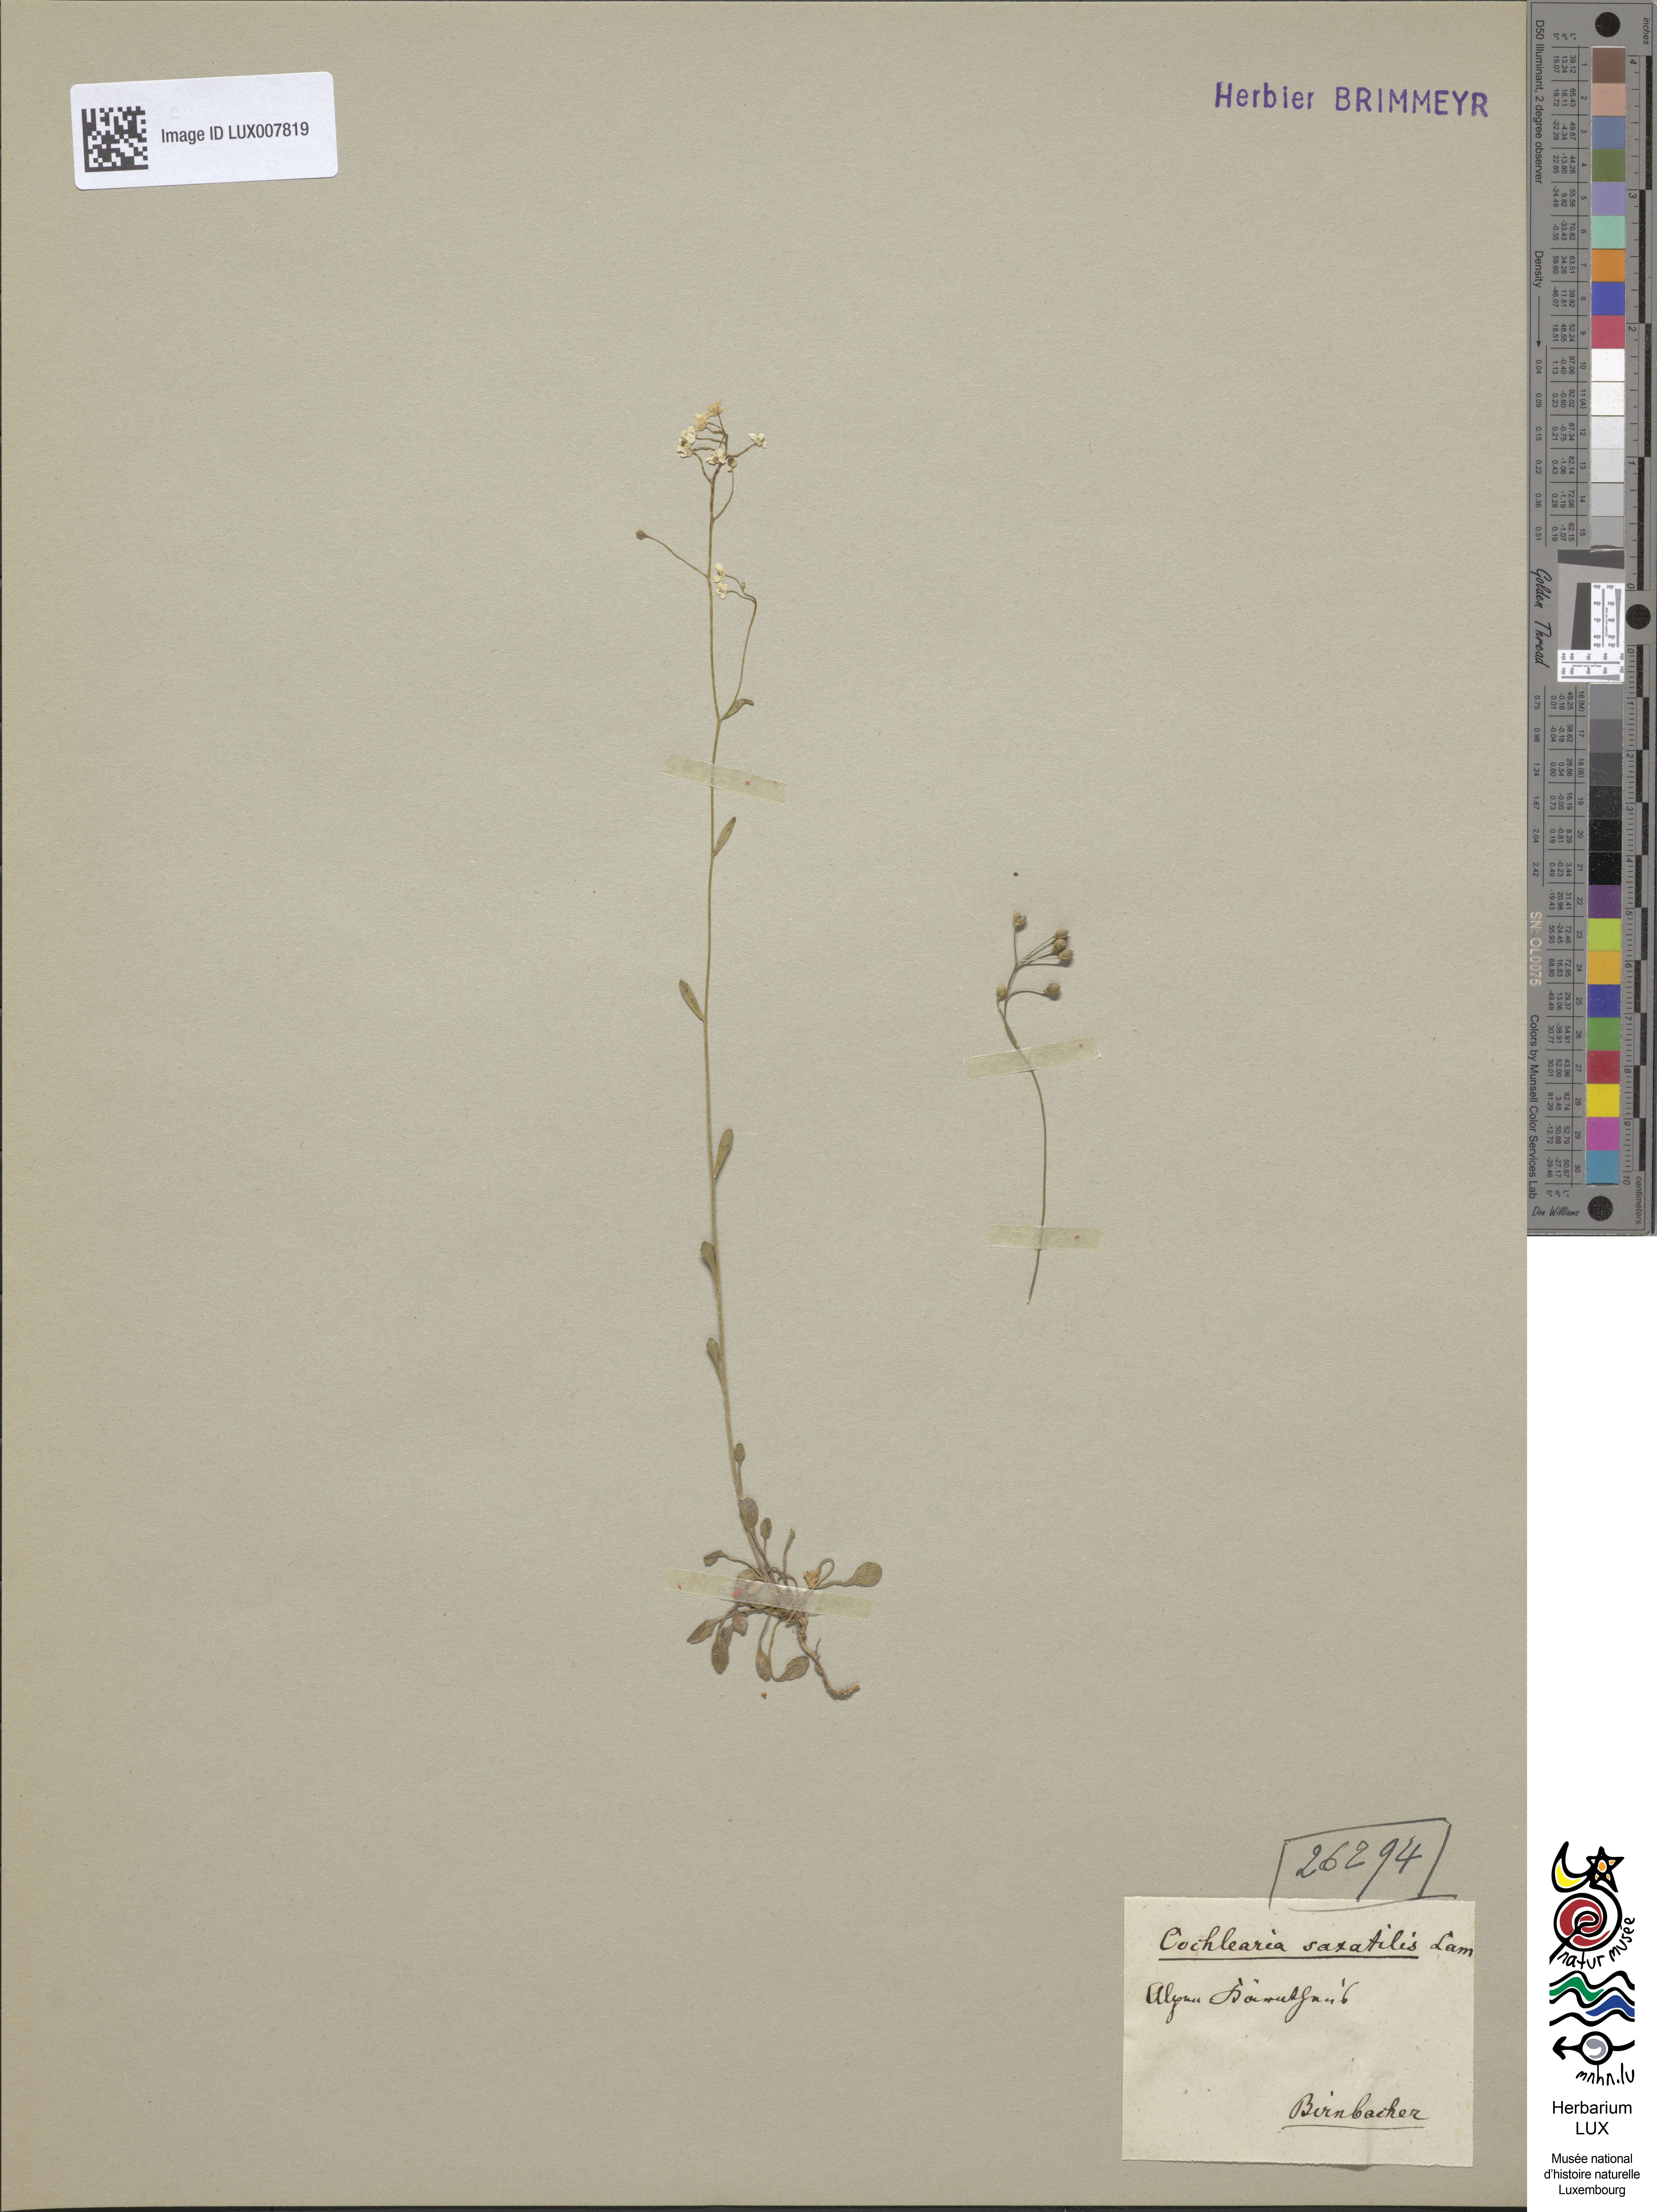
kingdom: Plantae
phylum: Tracheophyta
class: Magnoliopsida
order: Brassicales
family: Brassicaceae
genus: Kernera
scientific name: Kernera saxatilis
